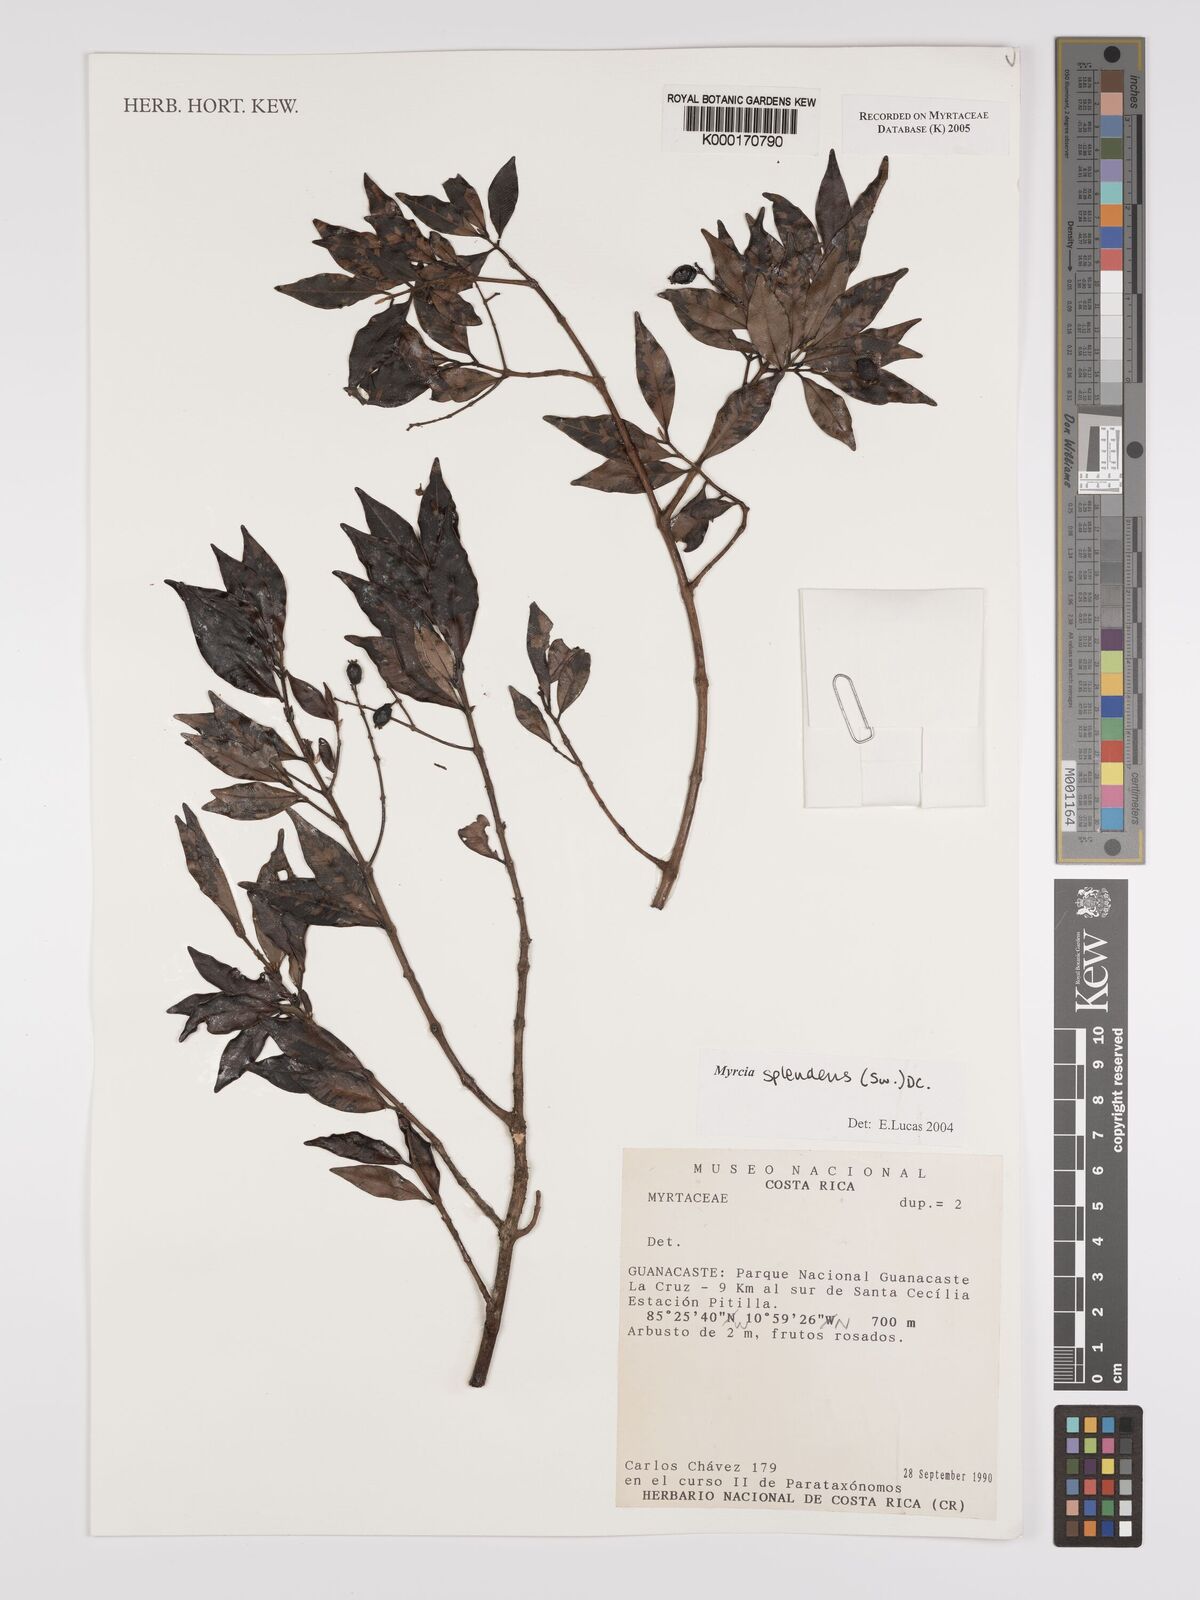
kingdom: Plantae
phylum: Tracheophyta
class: Magnoliopsida
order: Myrtales
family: Myrtaceae
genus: Myrcia
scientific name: Myrcia splendens
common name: Surinam cherry
